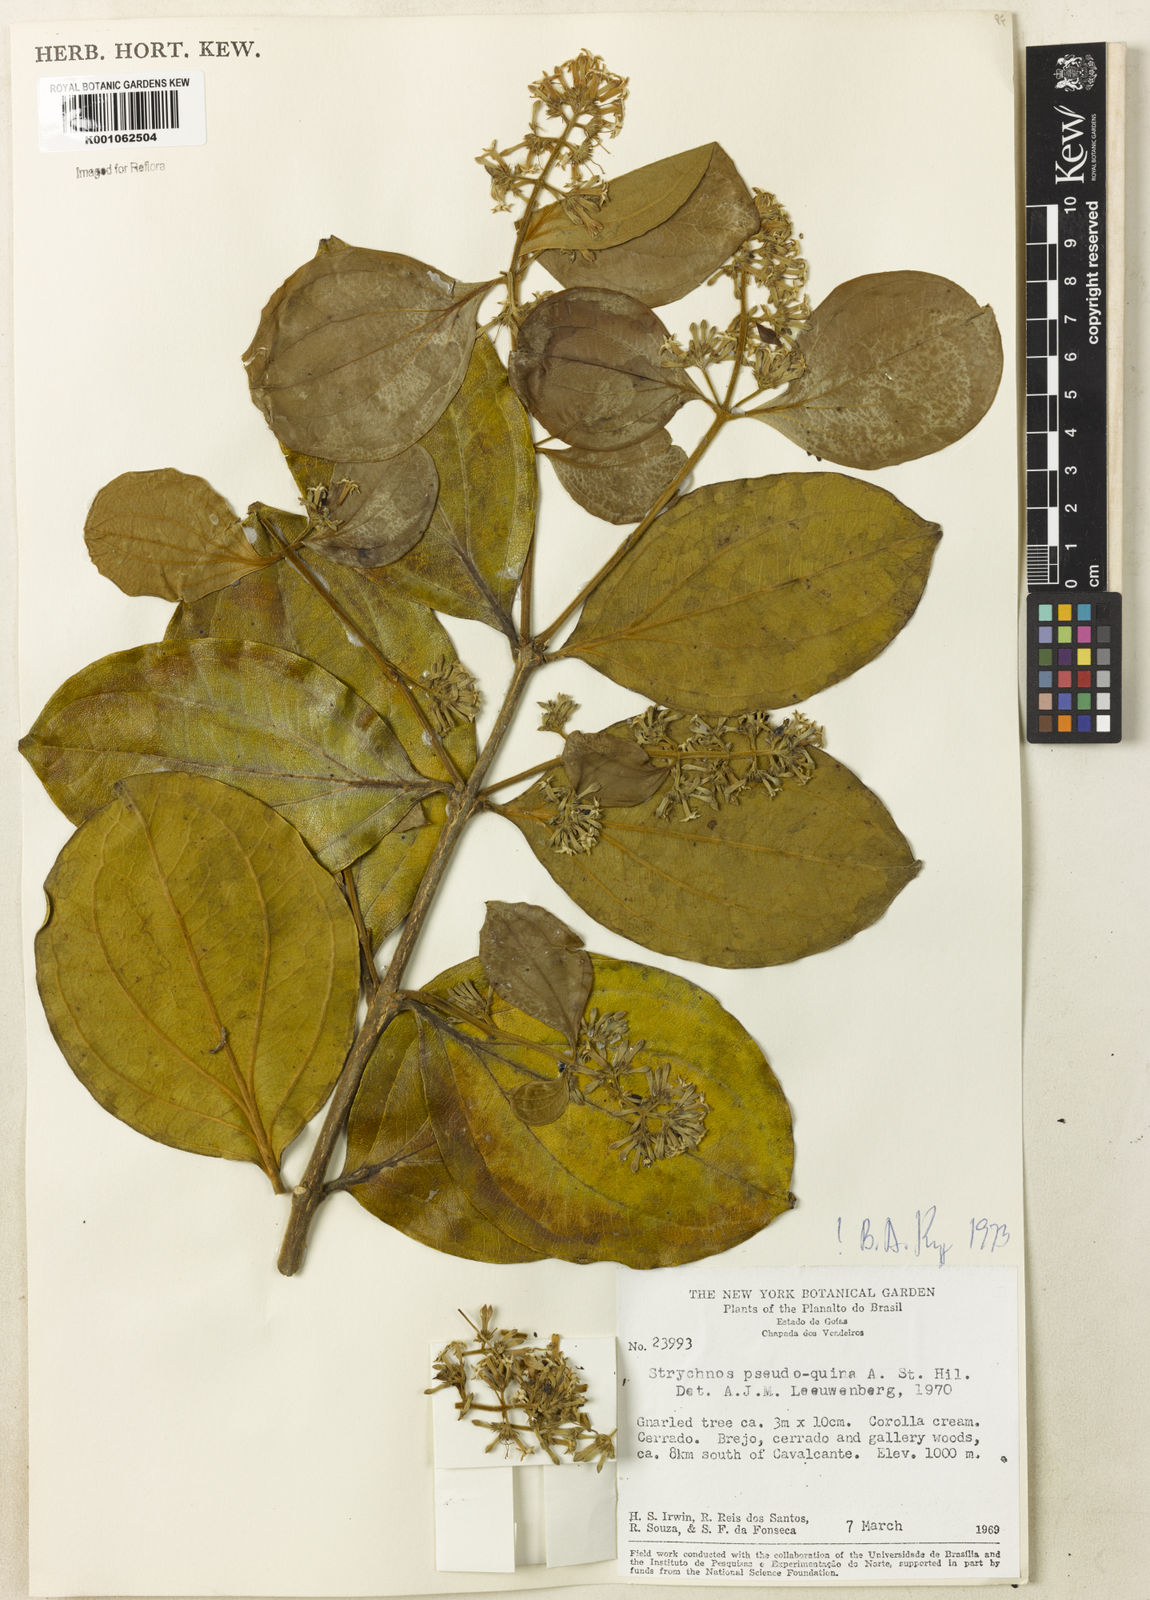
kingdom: Plantae
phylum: Tracheophyta
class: Magnoliopsida
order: Gentianales
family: Loganiaceae
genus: Strychnos
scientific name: Strychnos pseudoquina
